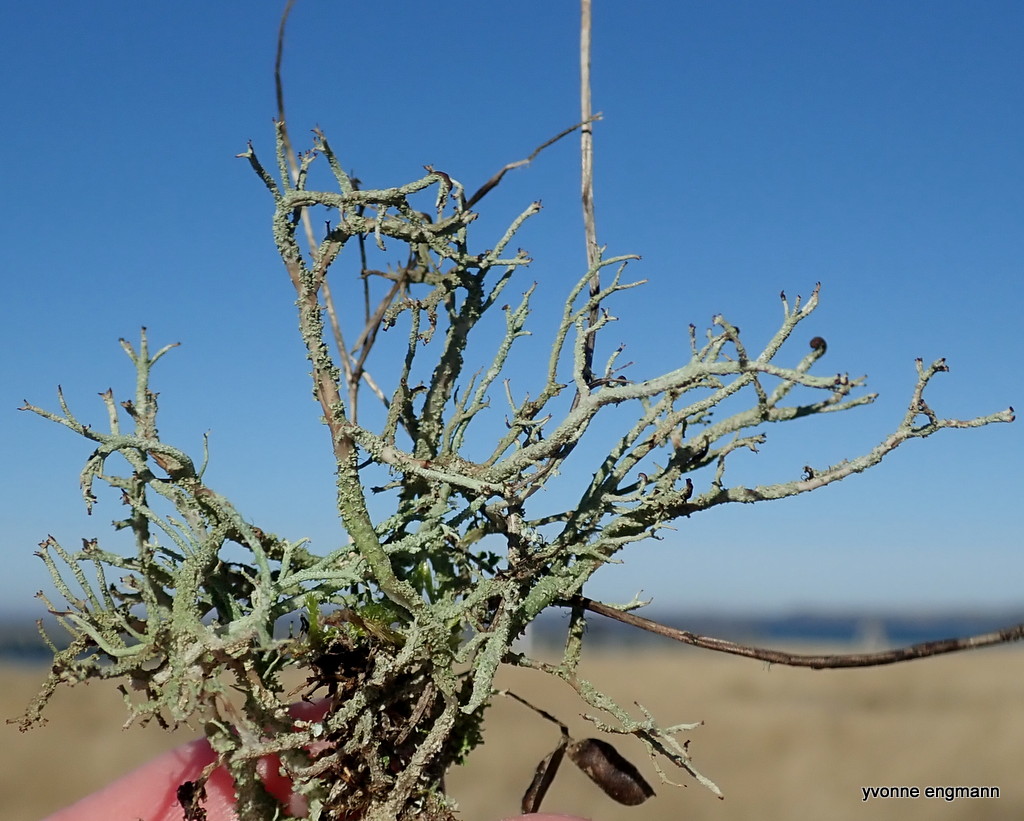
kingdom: Fungi
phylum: Ascomycota
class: Lecanoromycetes
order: Lecanorales
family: Cladoniaceae
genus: Cladonia
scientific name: Cladonia scabriuscula
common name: ru bægerlav
